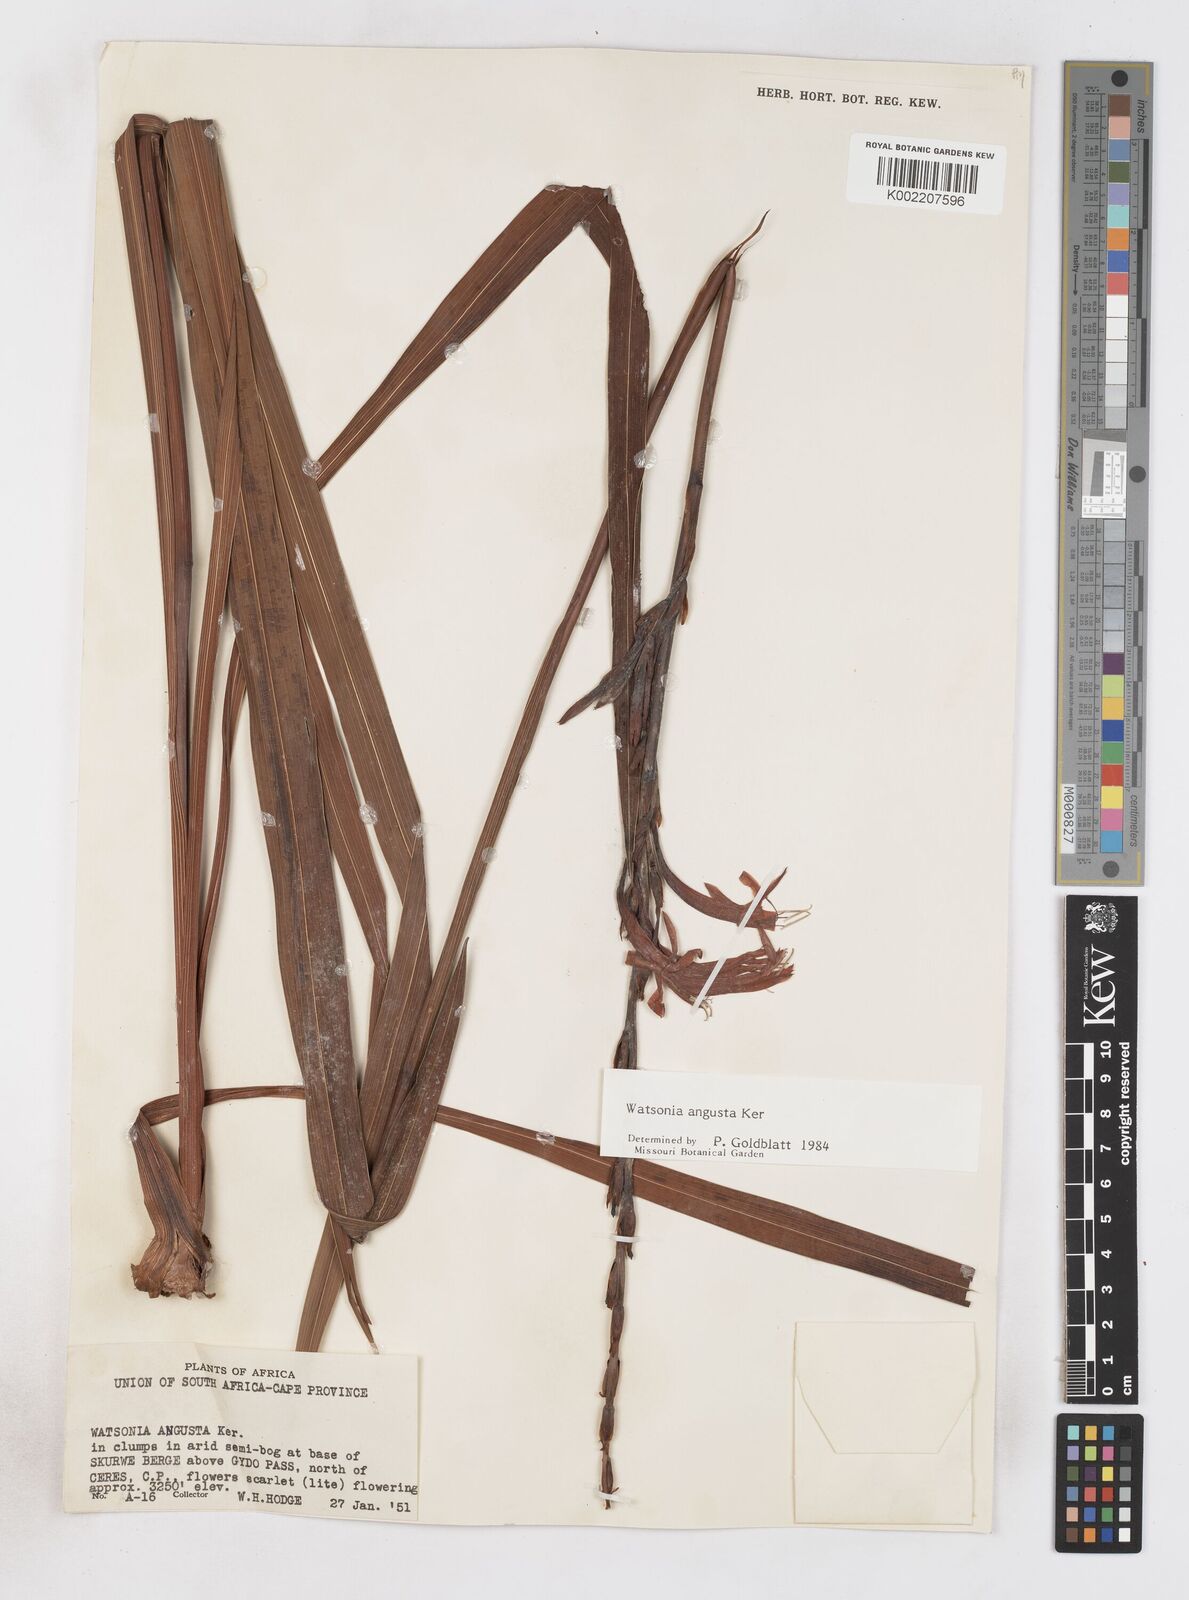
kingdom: Plantae
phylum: Tracheophyta
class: Liliopsida
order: Asparagales
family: Iridaceae
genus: Watsonia
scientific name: Watsonia angusta
